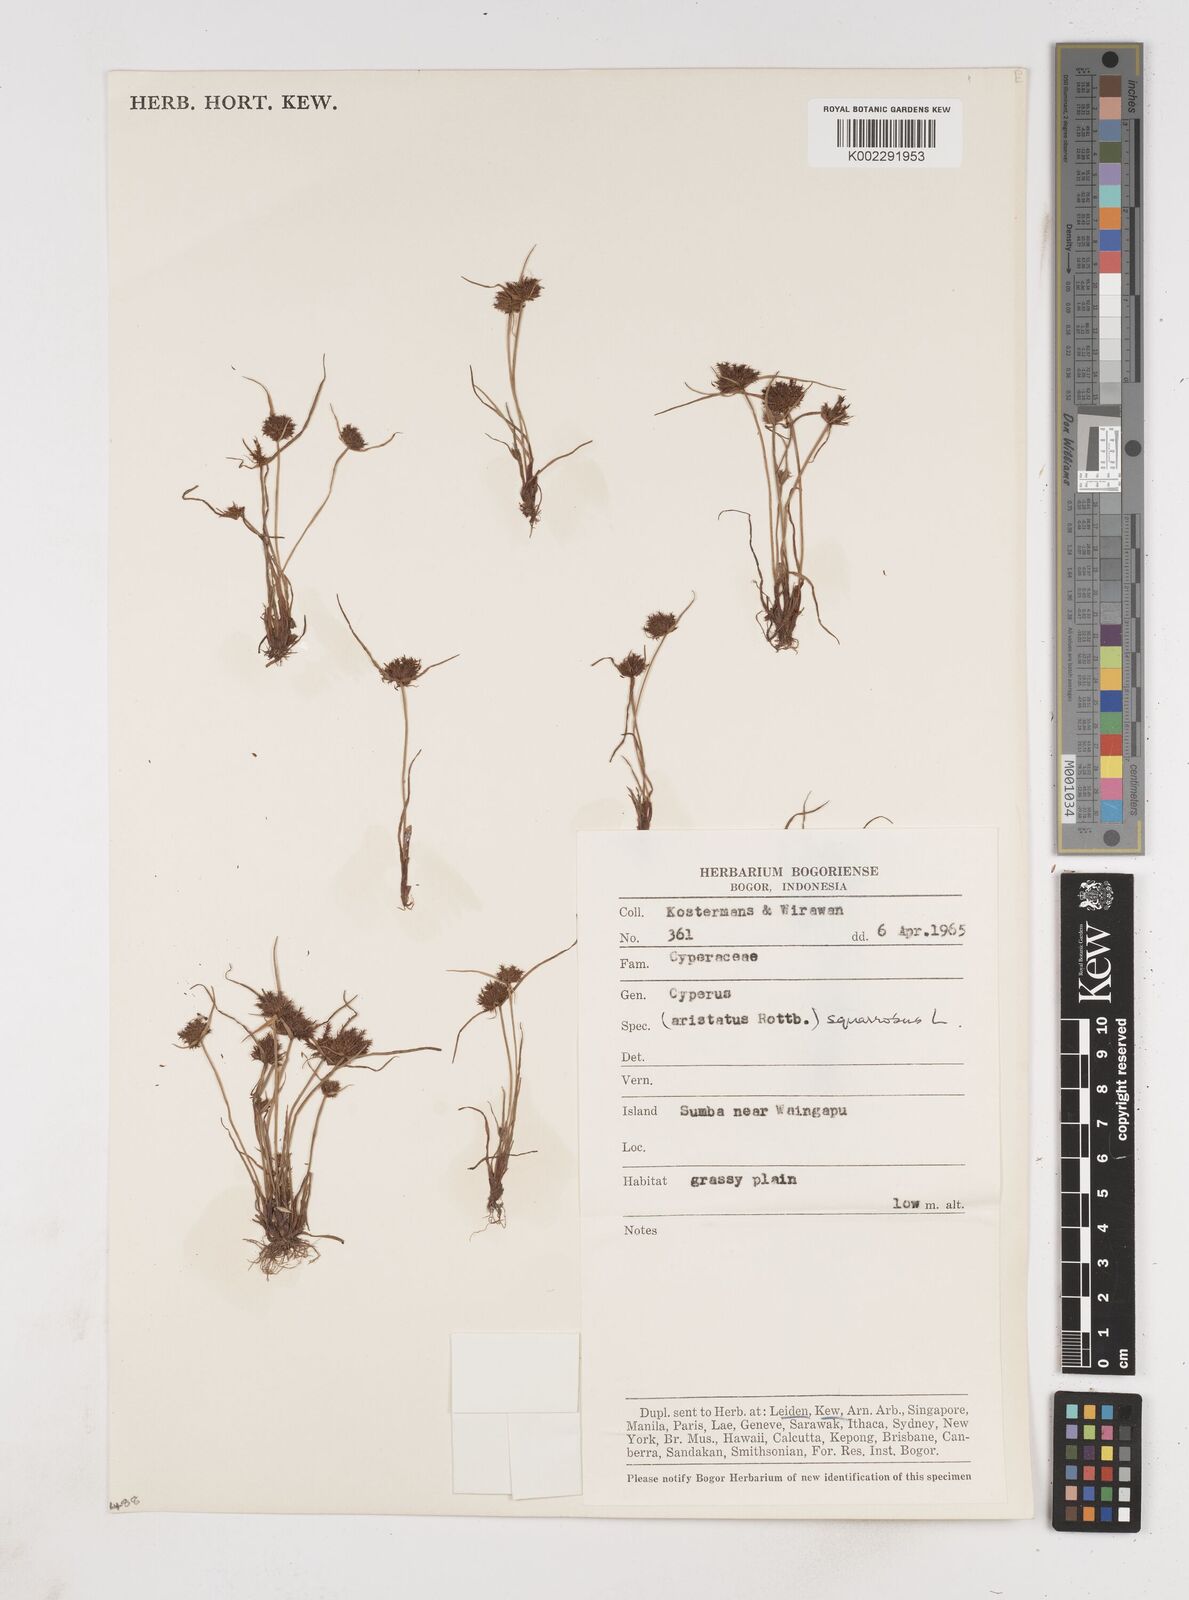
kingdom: Plantae
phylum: Tracheophyta
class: Liliopsida
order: Poales
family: Cyperaceae
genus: Cyperus
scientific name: Cyperus squarrosus
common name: Awned cyperus
